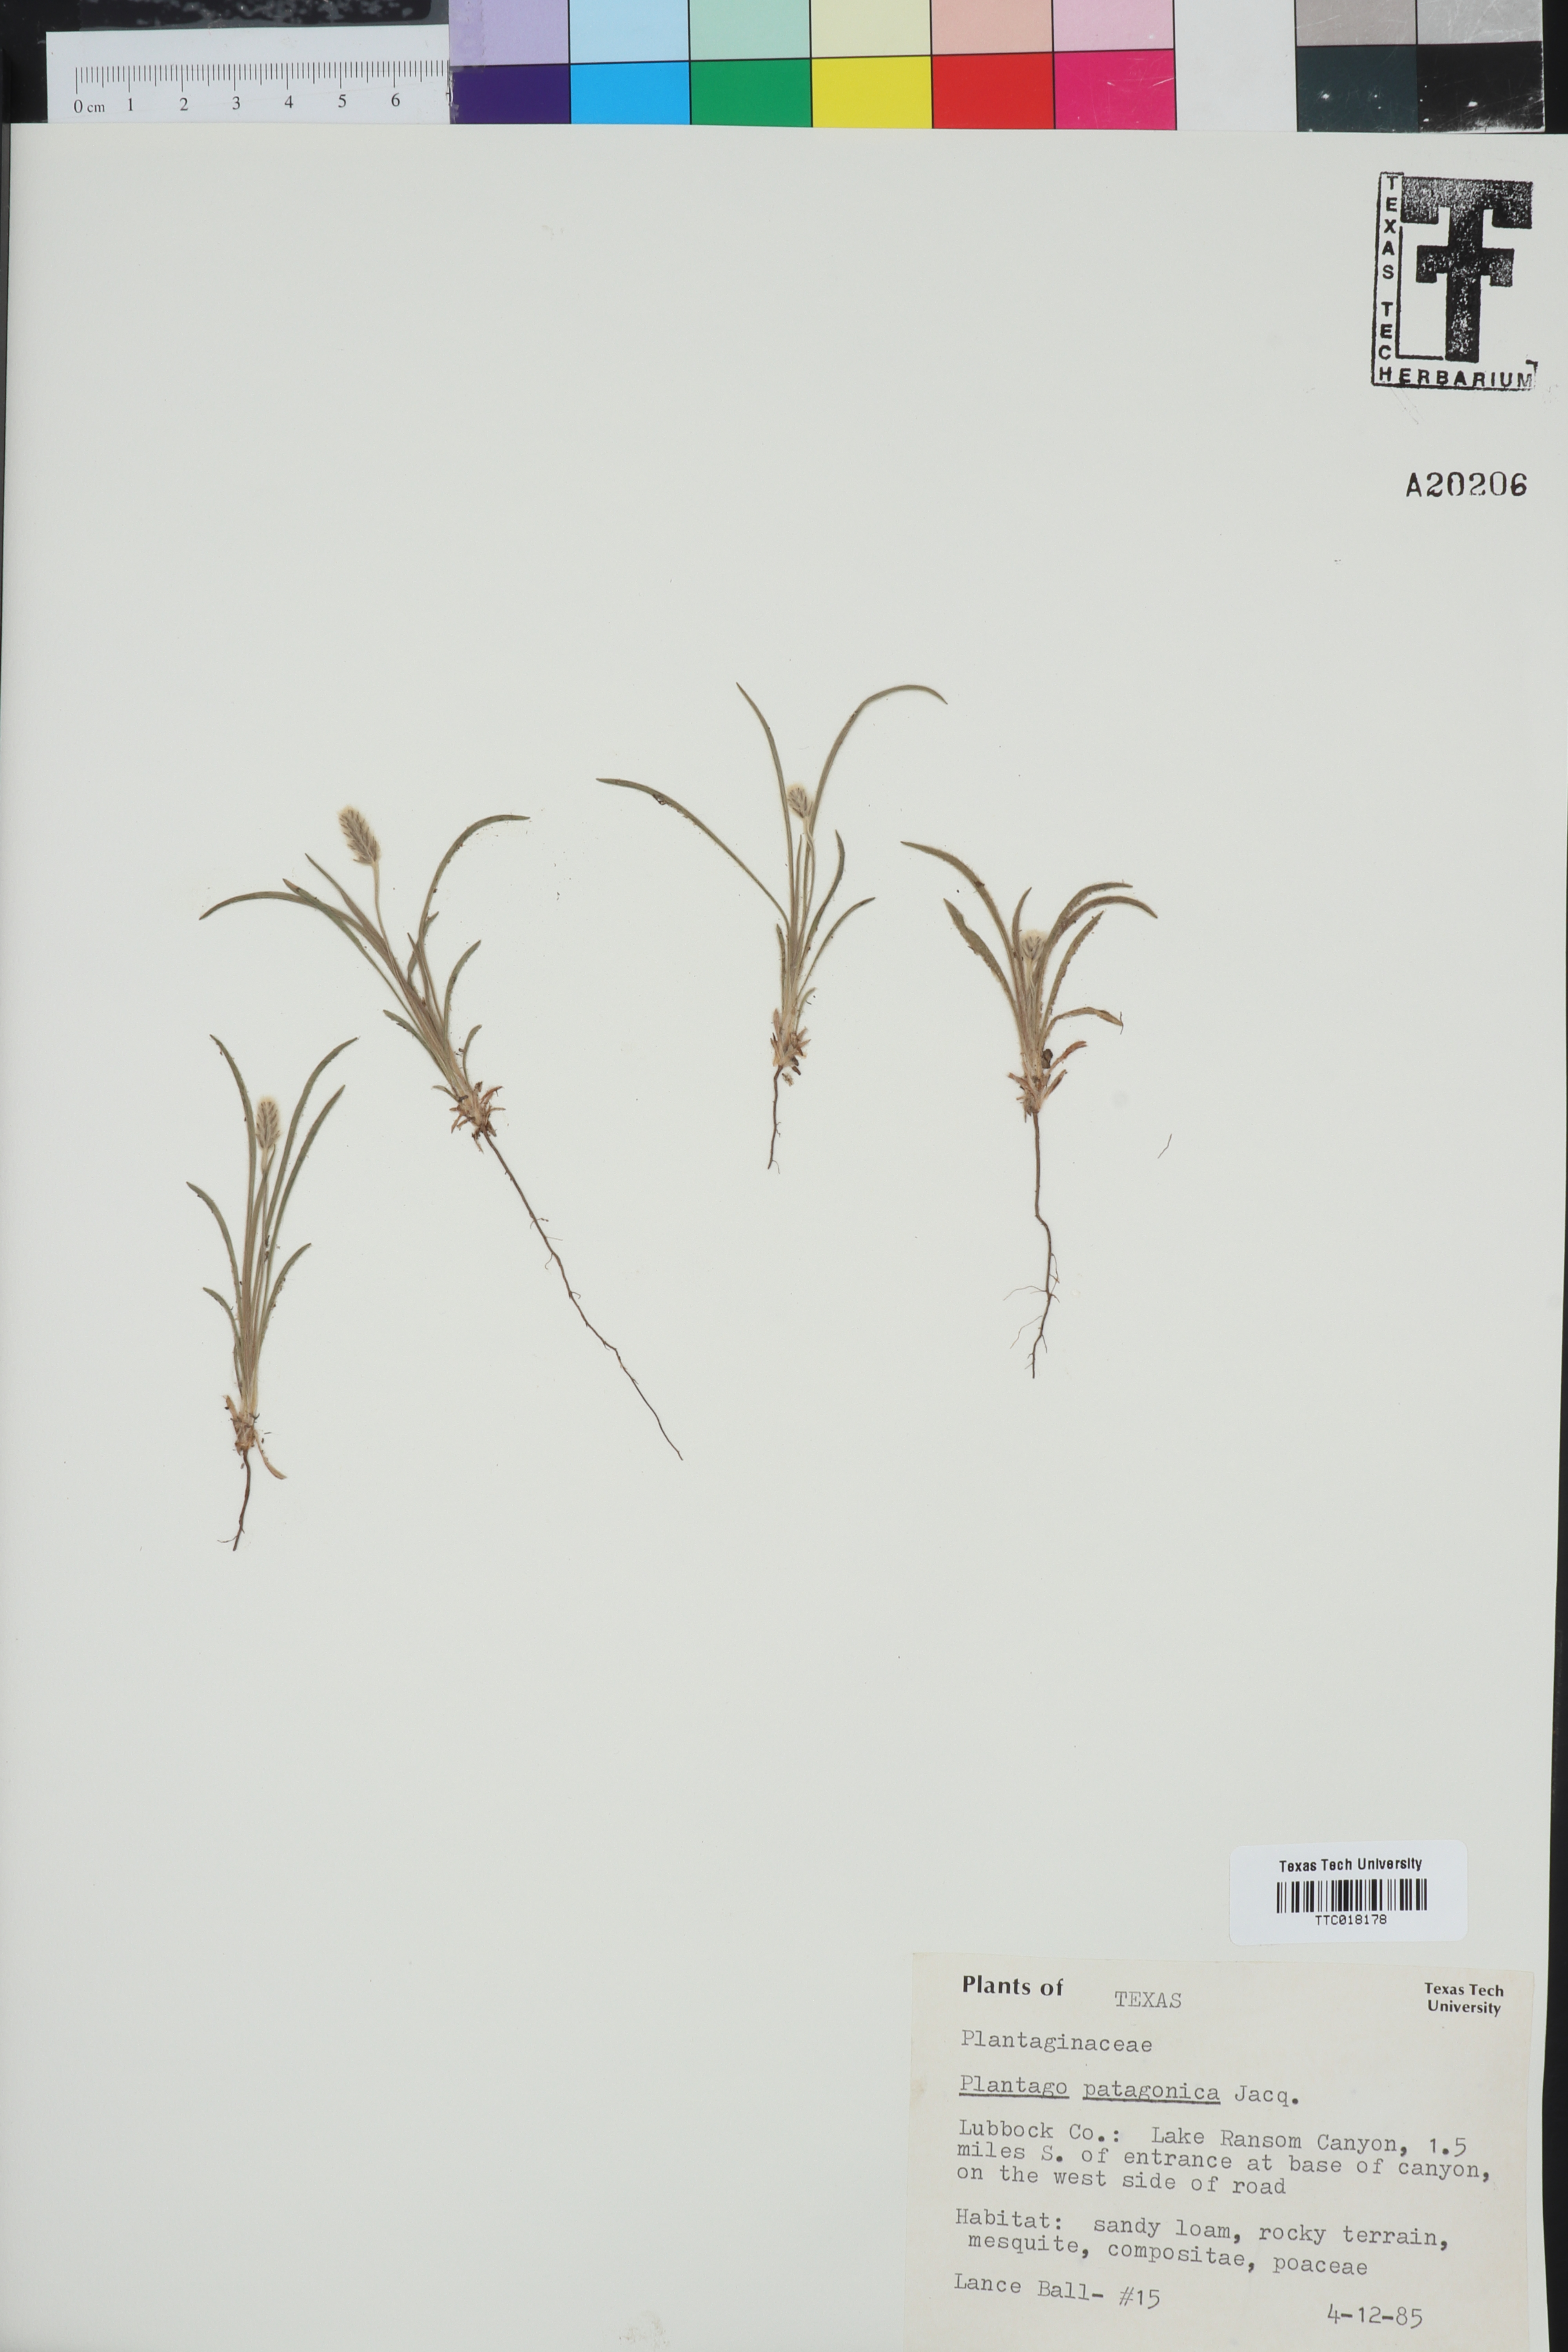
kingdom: Plantae
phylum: Tracheophyta
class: Magnoliopsida
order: Lamiales
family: Plantaginaceae
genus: Plantago
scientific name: Plantago patagonica
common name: Patagonia indian-wheat
